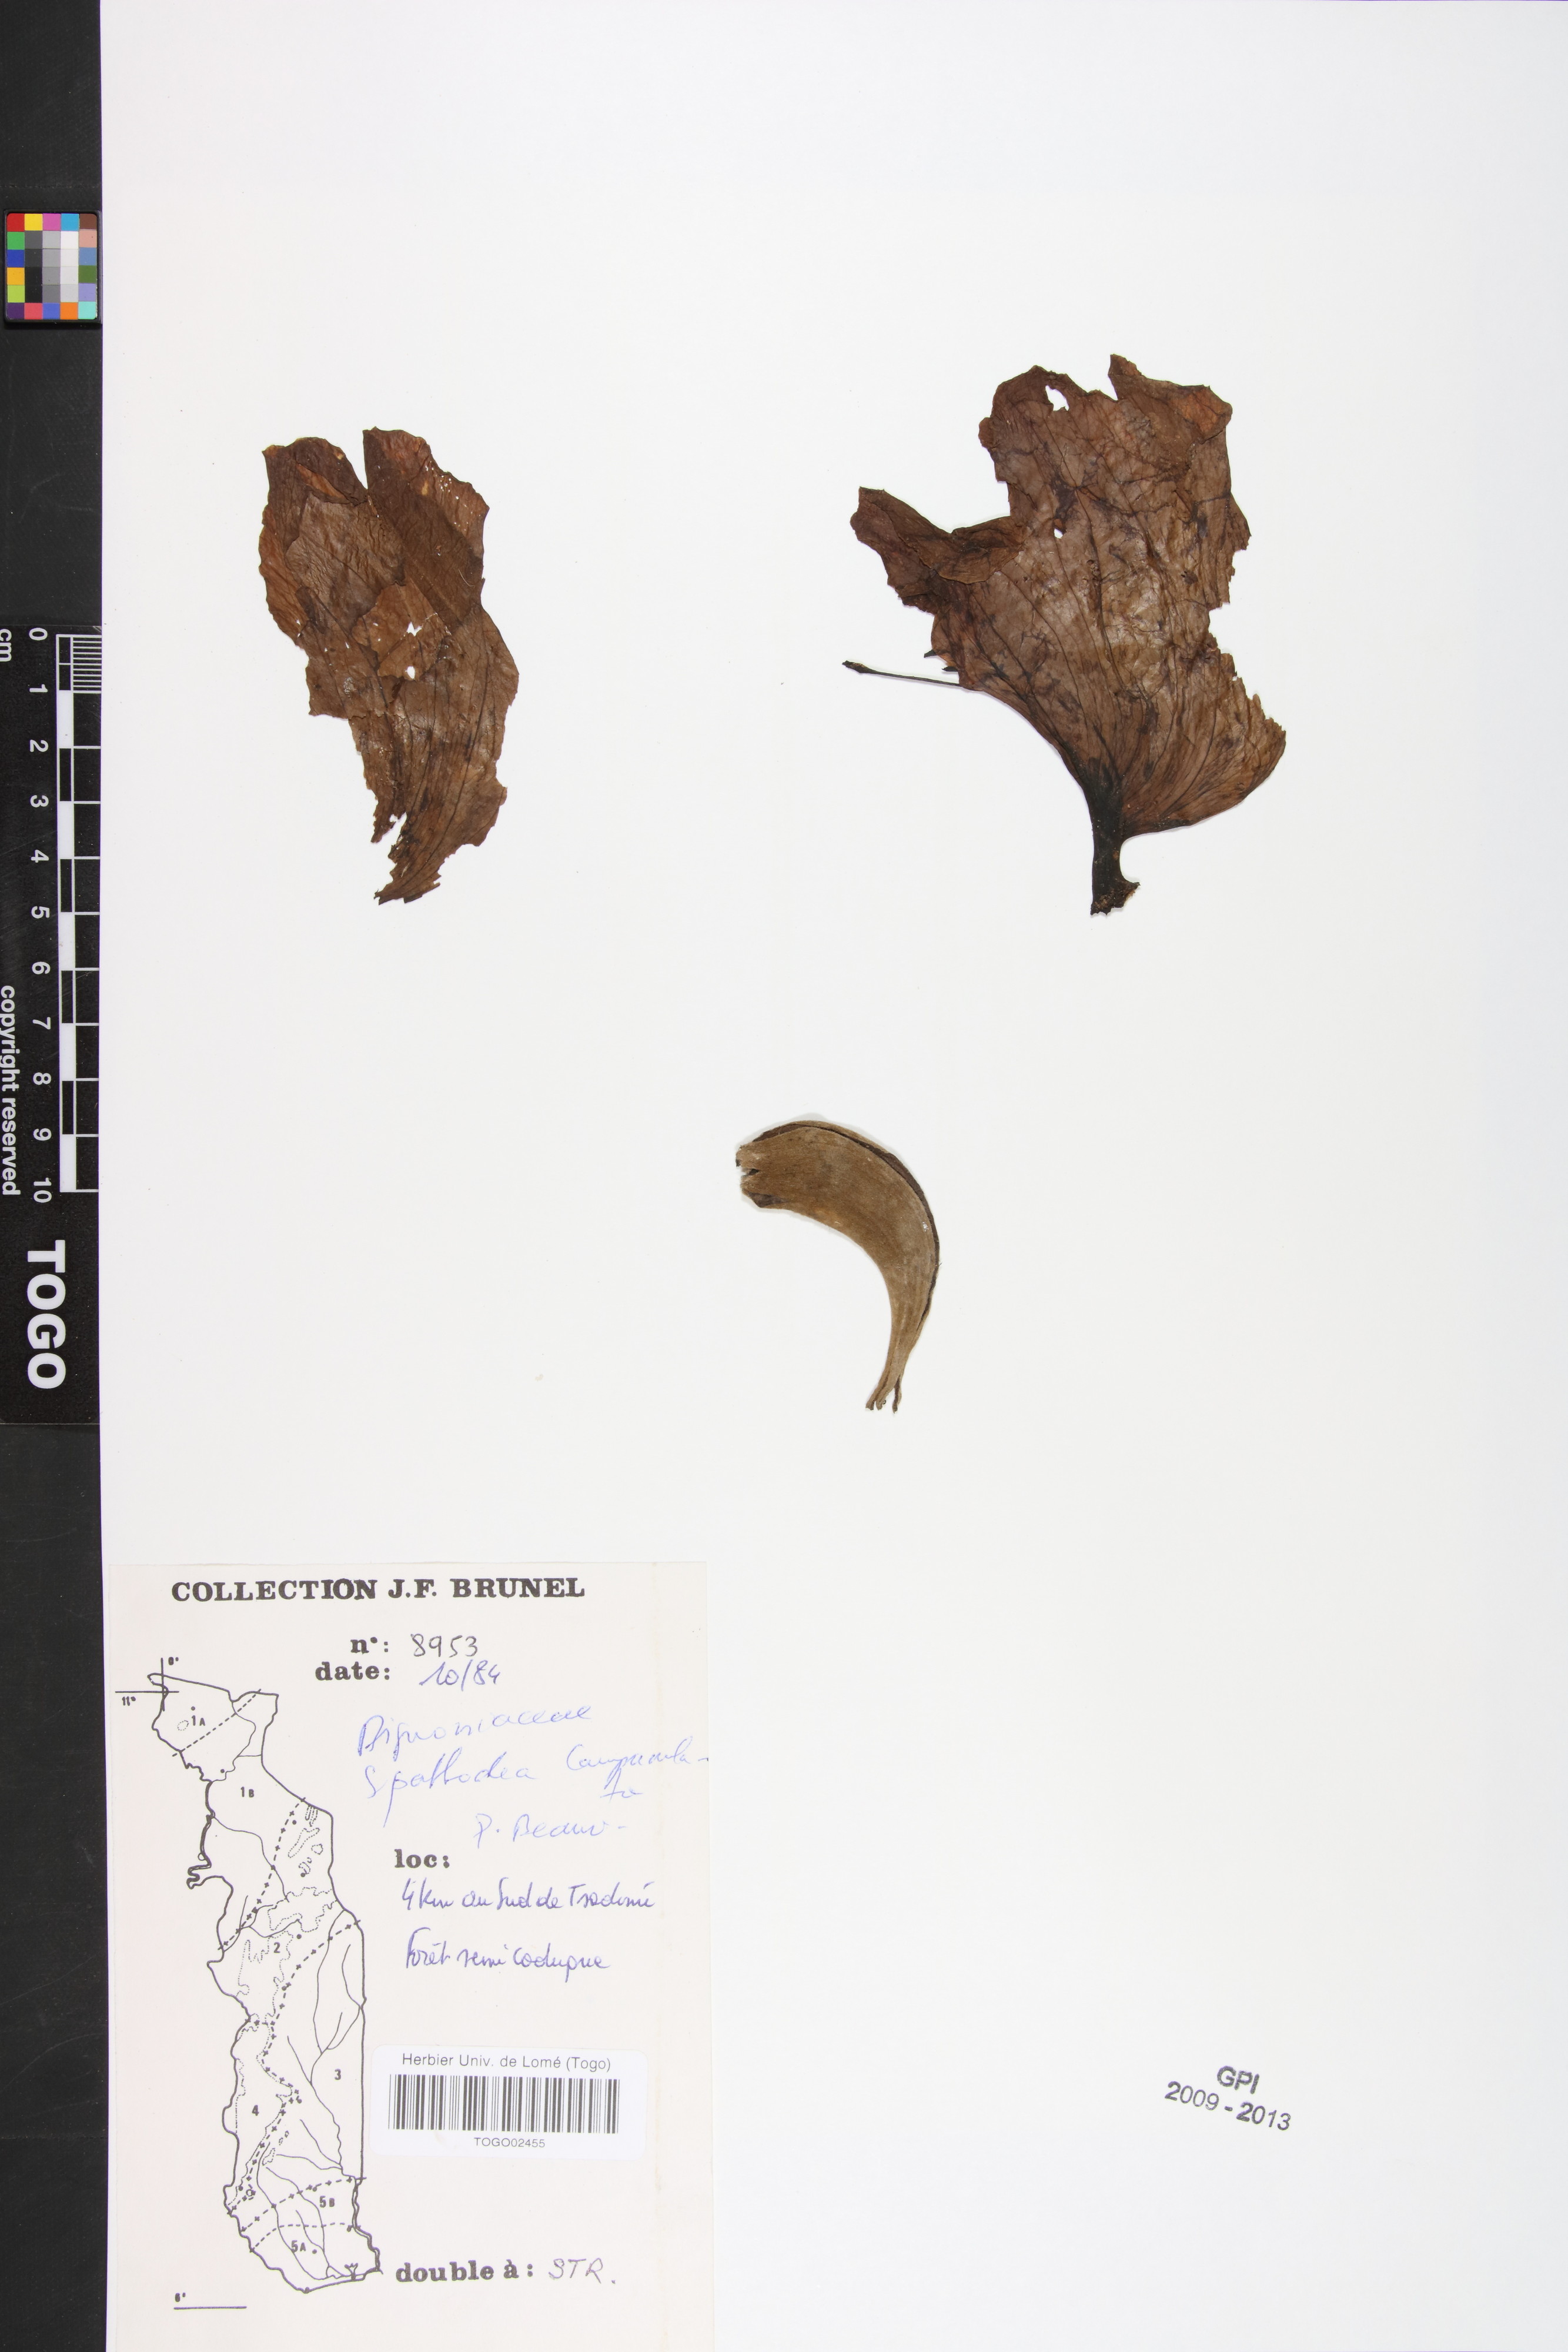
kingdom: Plantae
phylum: Tracheophyta
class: Magnoliopsida
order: Lamiales
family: Bignoniaceae
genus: Spathodea
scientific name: Spathodea campanulata
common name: African tuliptree
